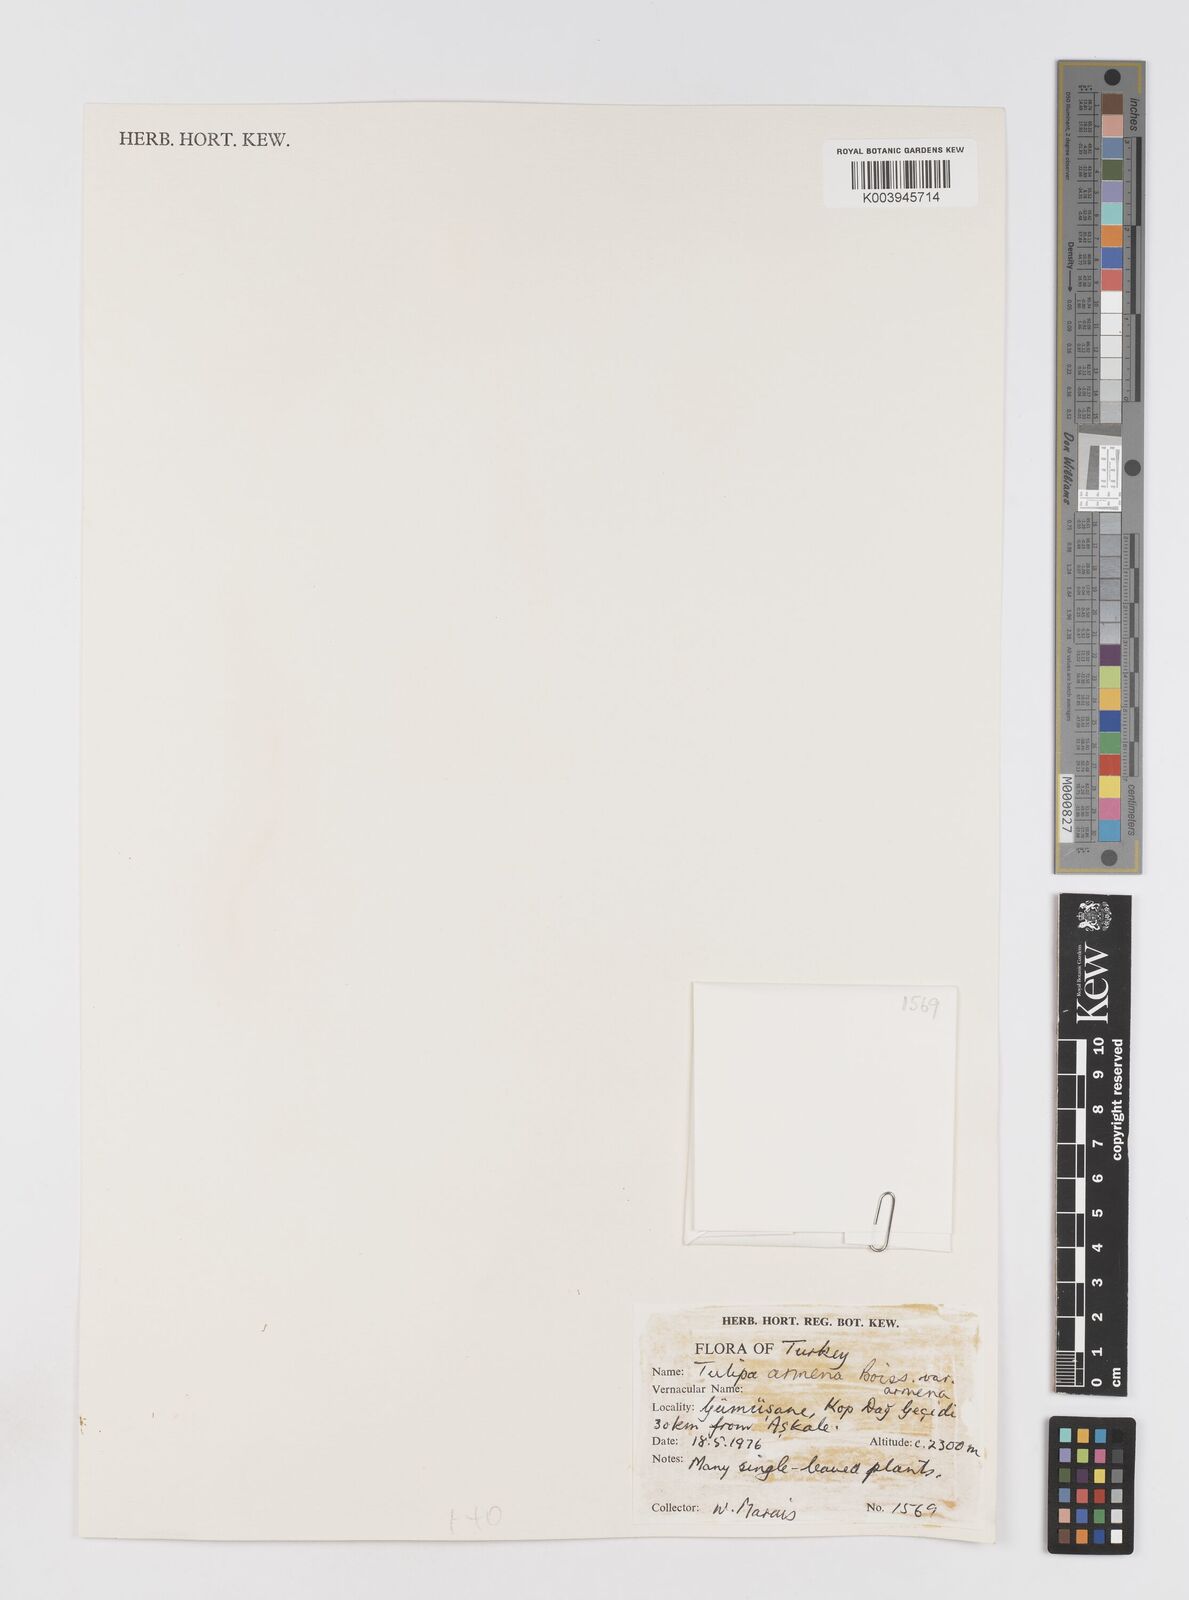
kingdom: Plantae
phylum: Tracheophyta
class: Liliopsida
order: Liliales
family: Liliaceae
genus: Tulipa
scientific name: Tulipa armena
